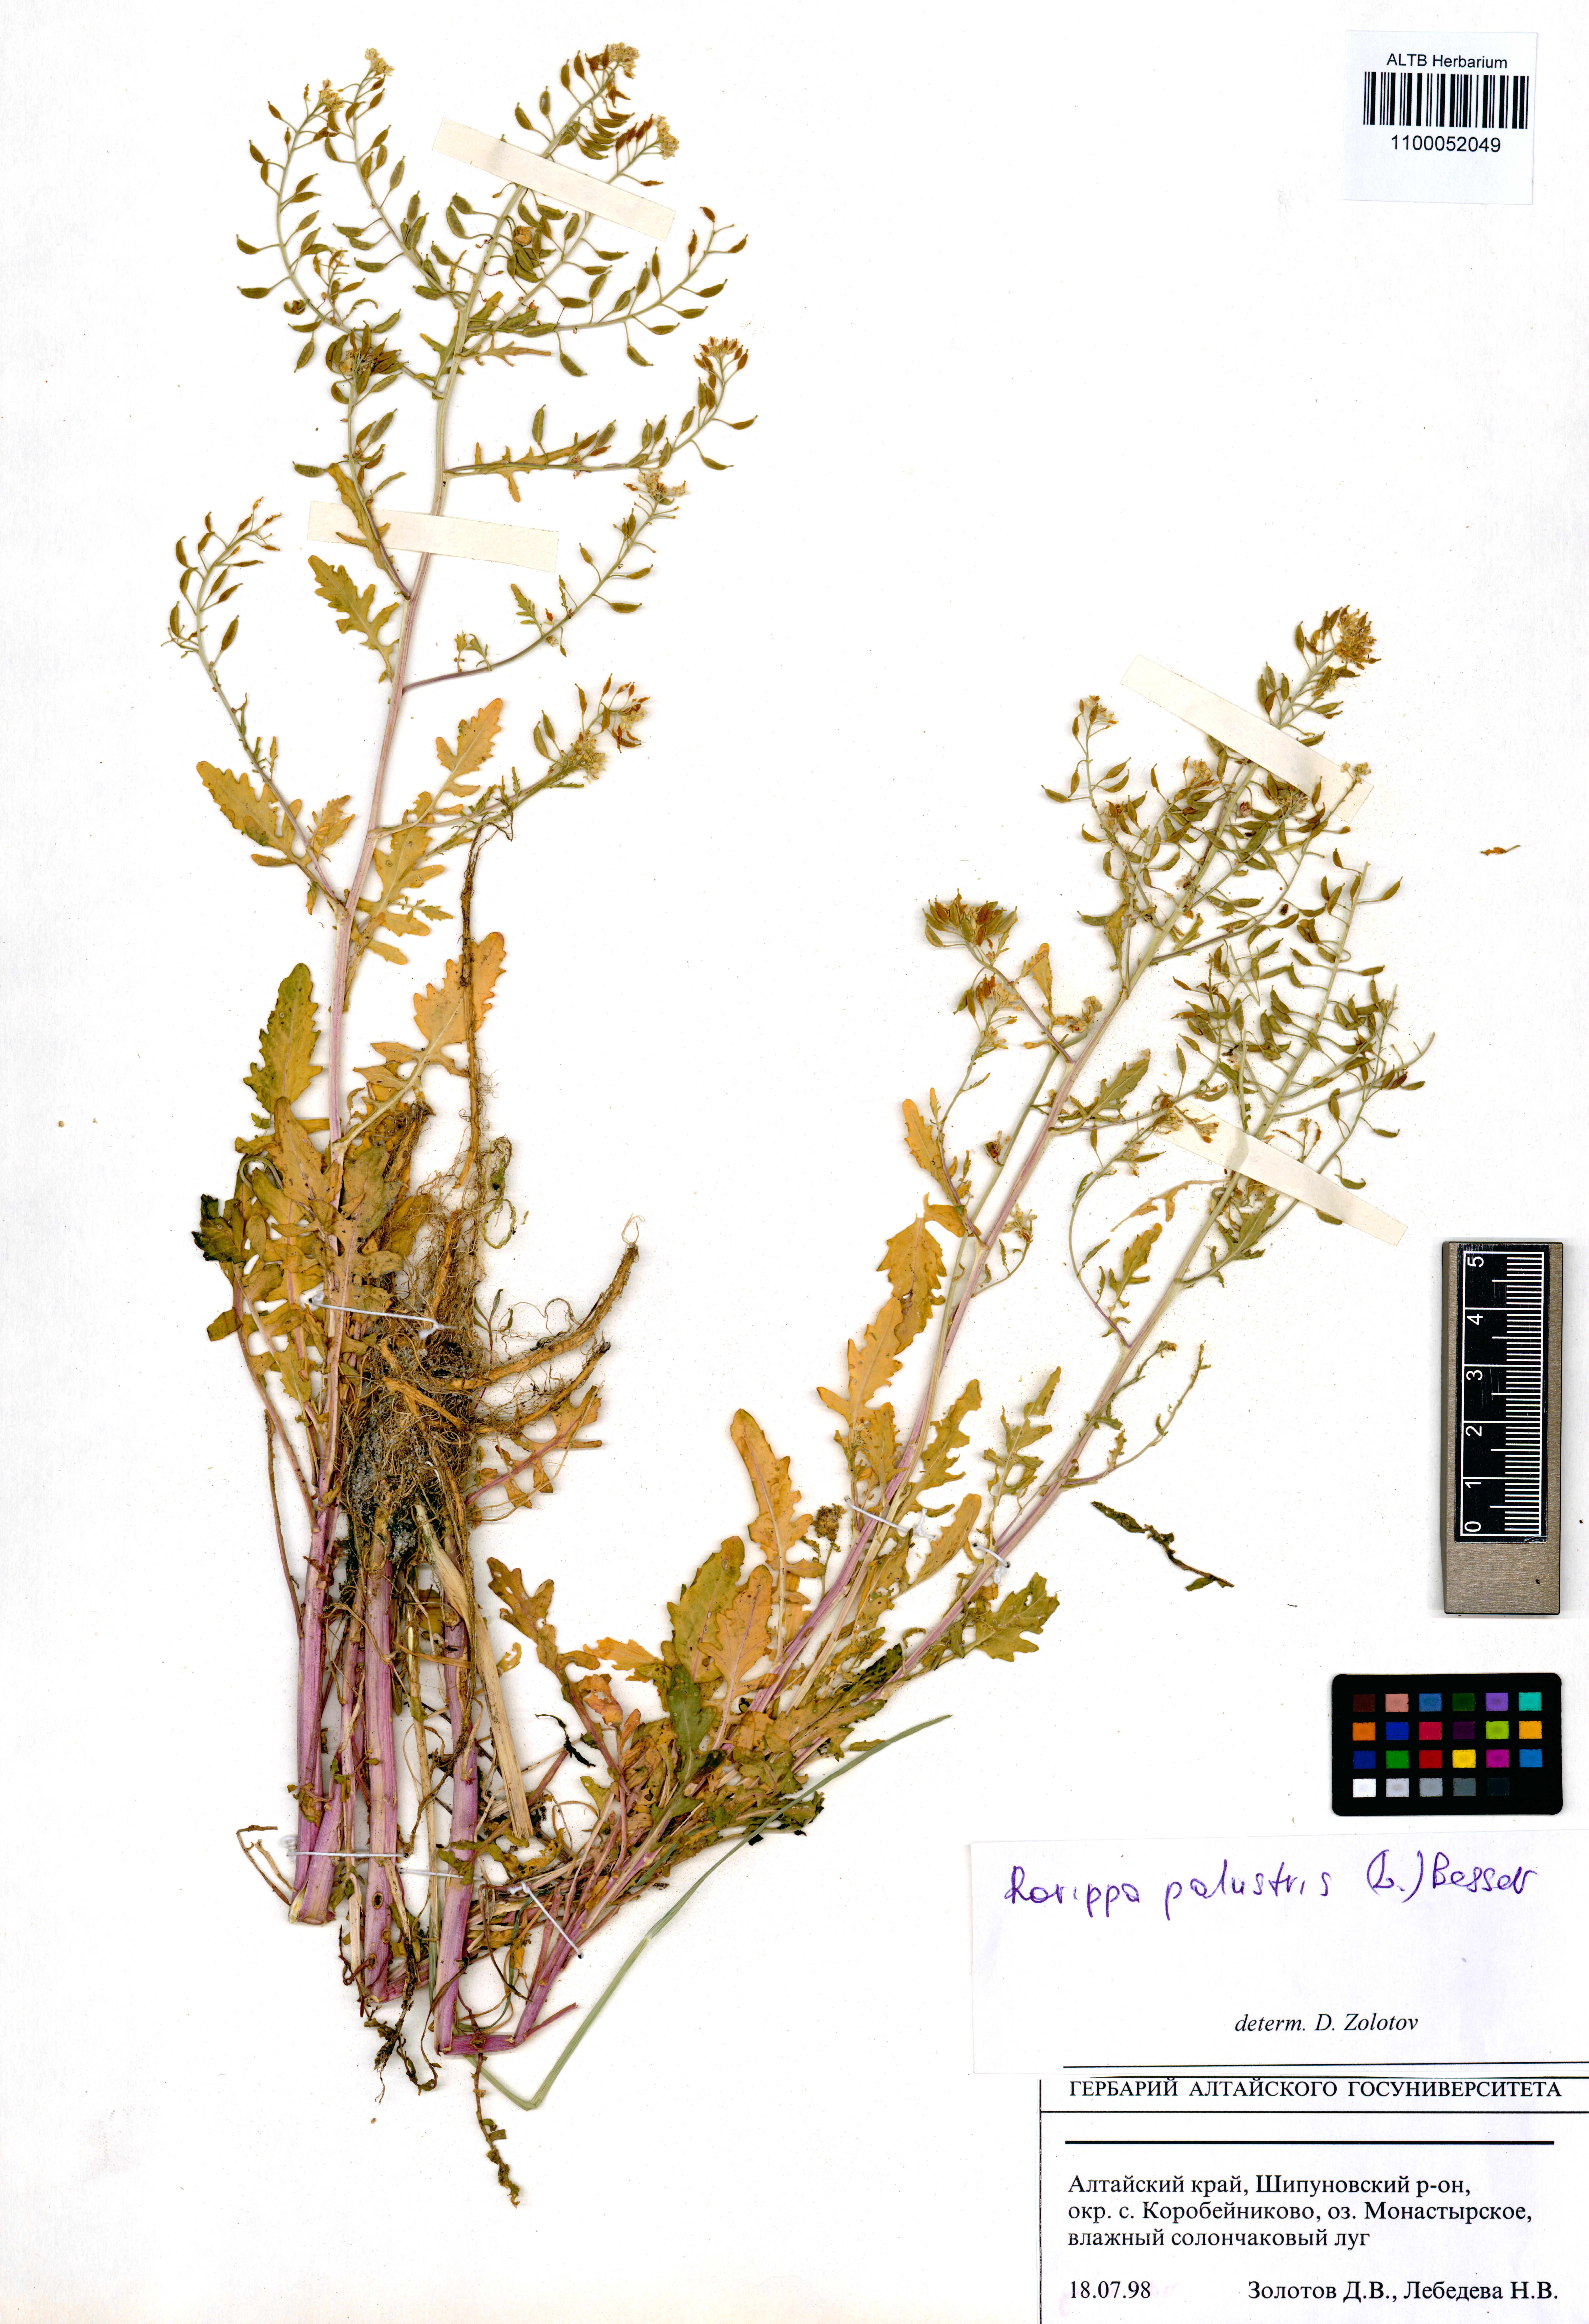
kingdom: Plantae
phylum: Tracheophyta
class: Magnoliopsida
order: Brassicales
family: Brassicaceae
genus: Rorippa
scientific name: Rorippa palustris
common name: Marsh yellow-cress
